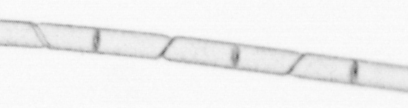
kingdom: Chromista
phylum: Ochrophyta
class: Bacillariophyceae
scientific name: Bacillariophyceae
